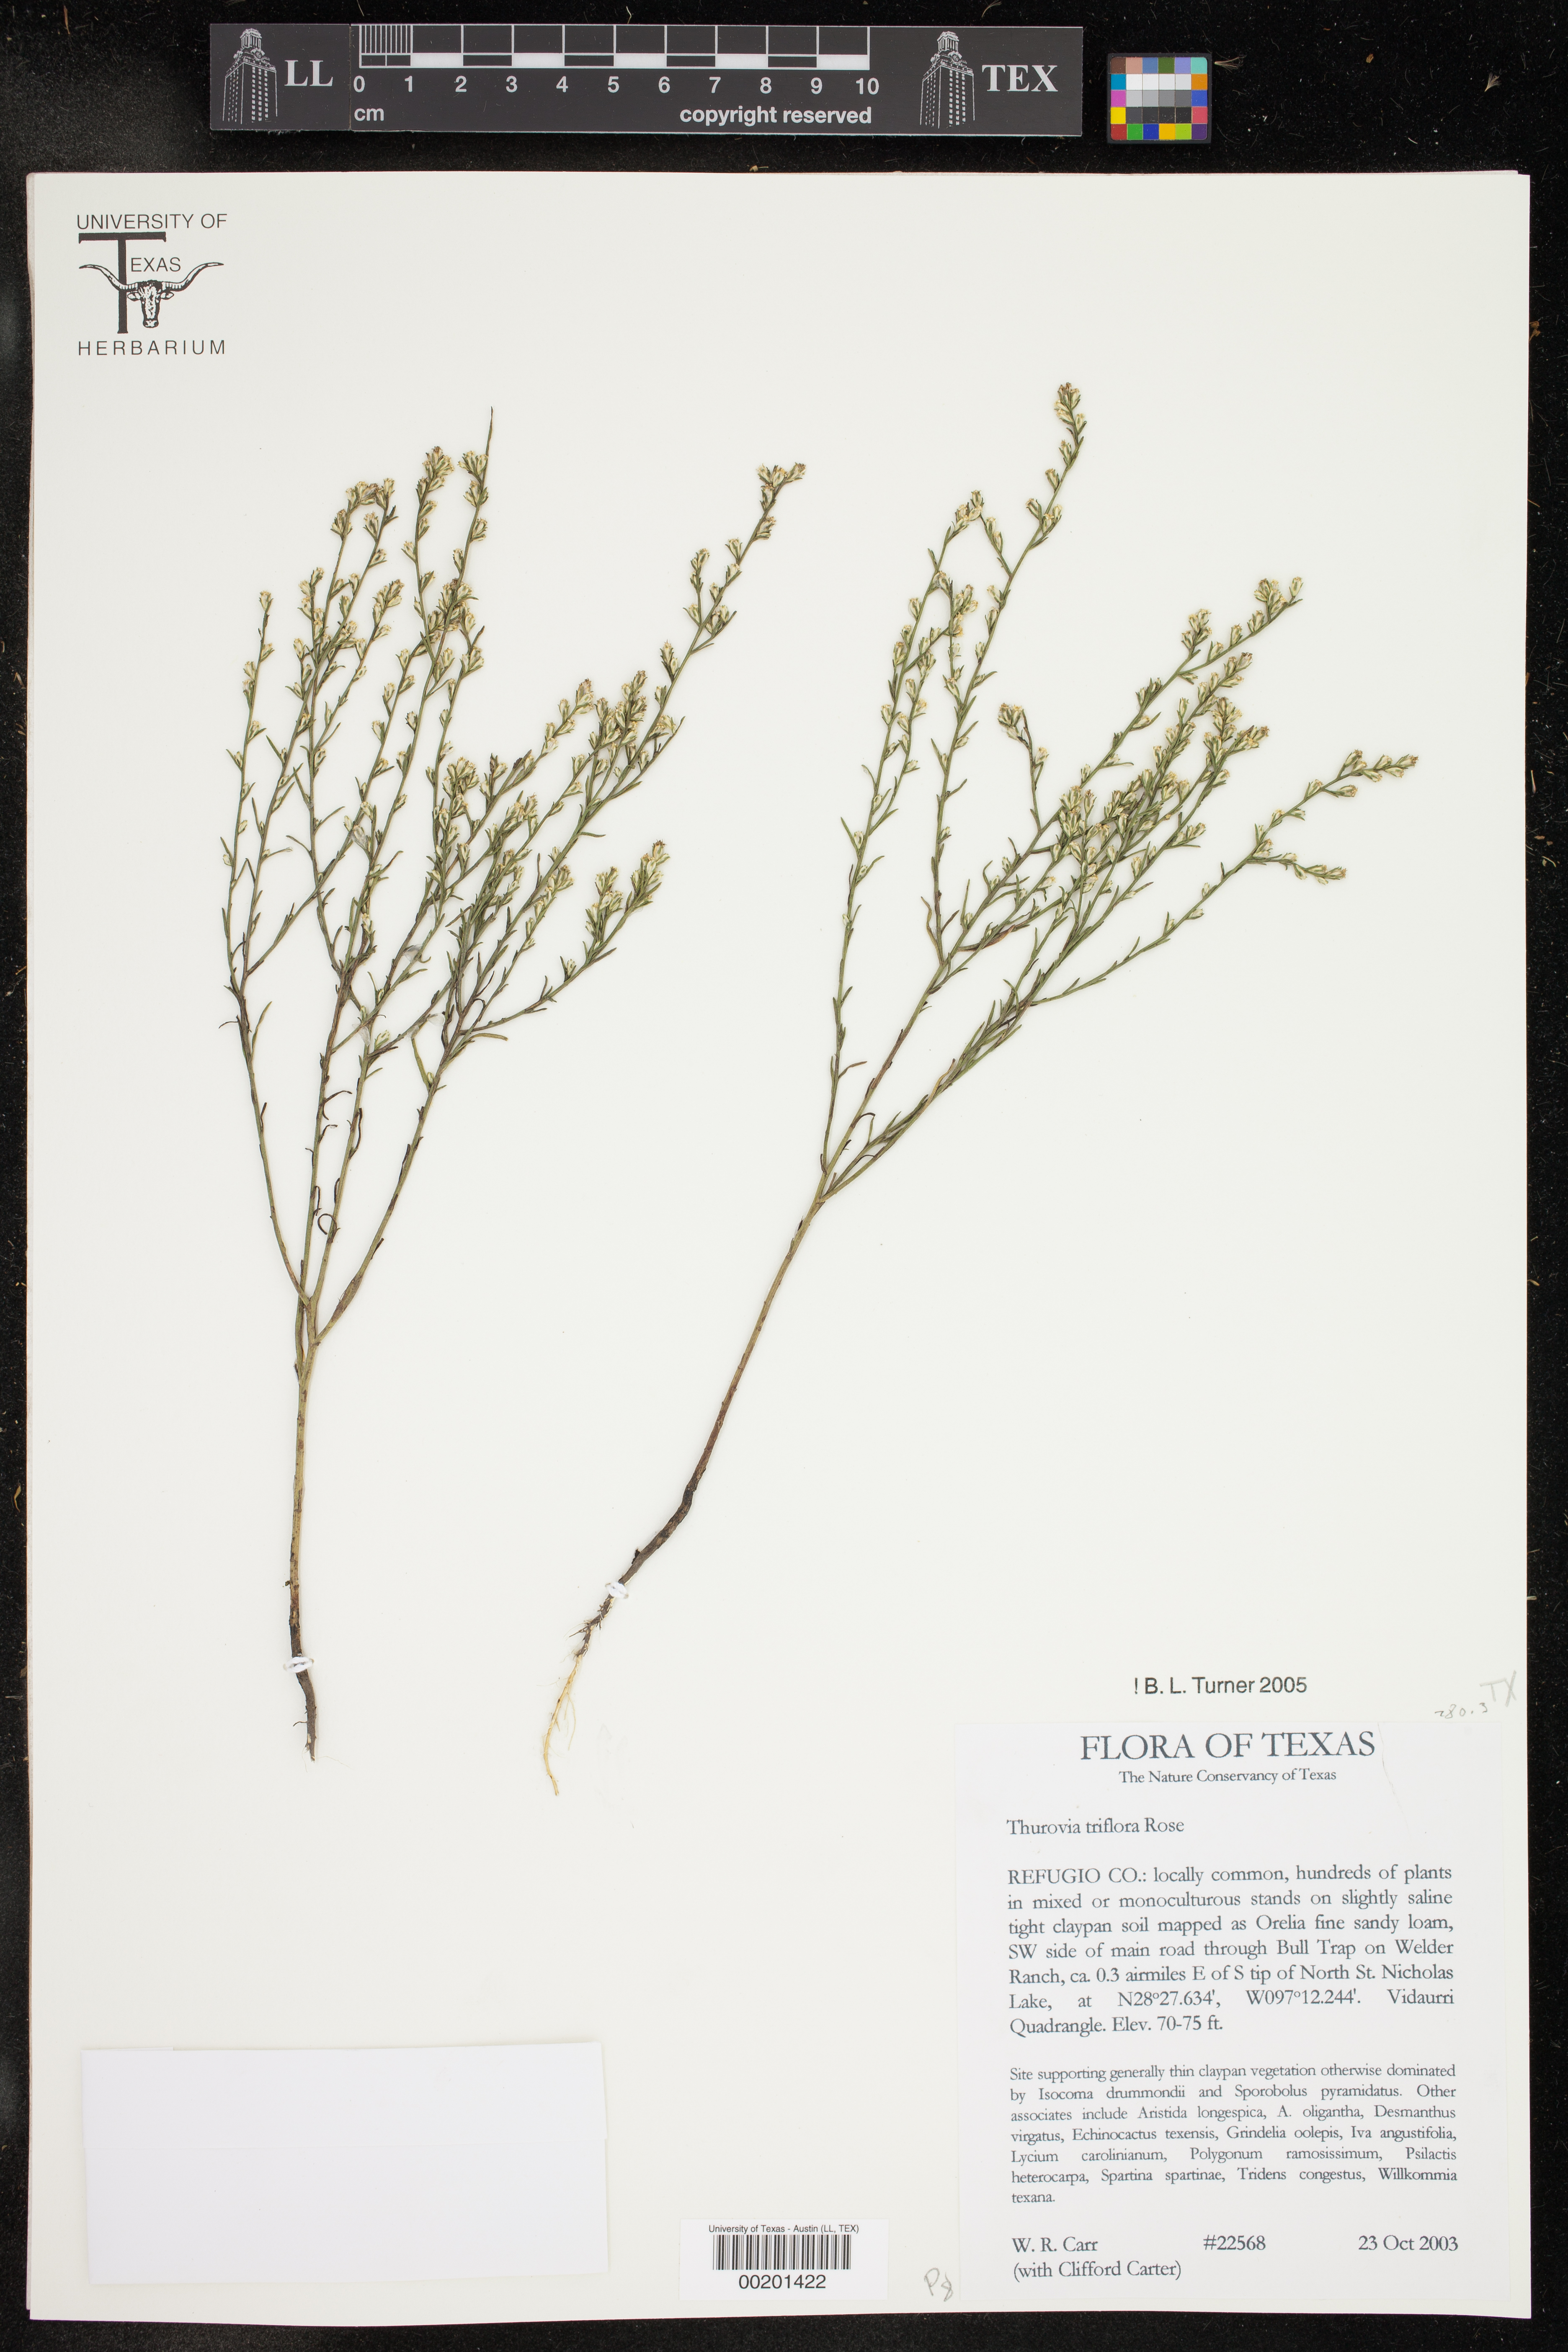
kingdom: Plantae
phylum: Tracheophyta
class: Magnoliopsida
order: Asterales
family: Asteraceae
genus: Thurovia
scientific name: Thurovia triflora
